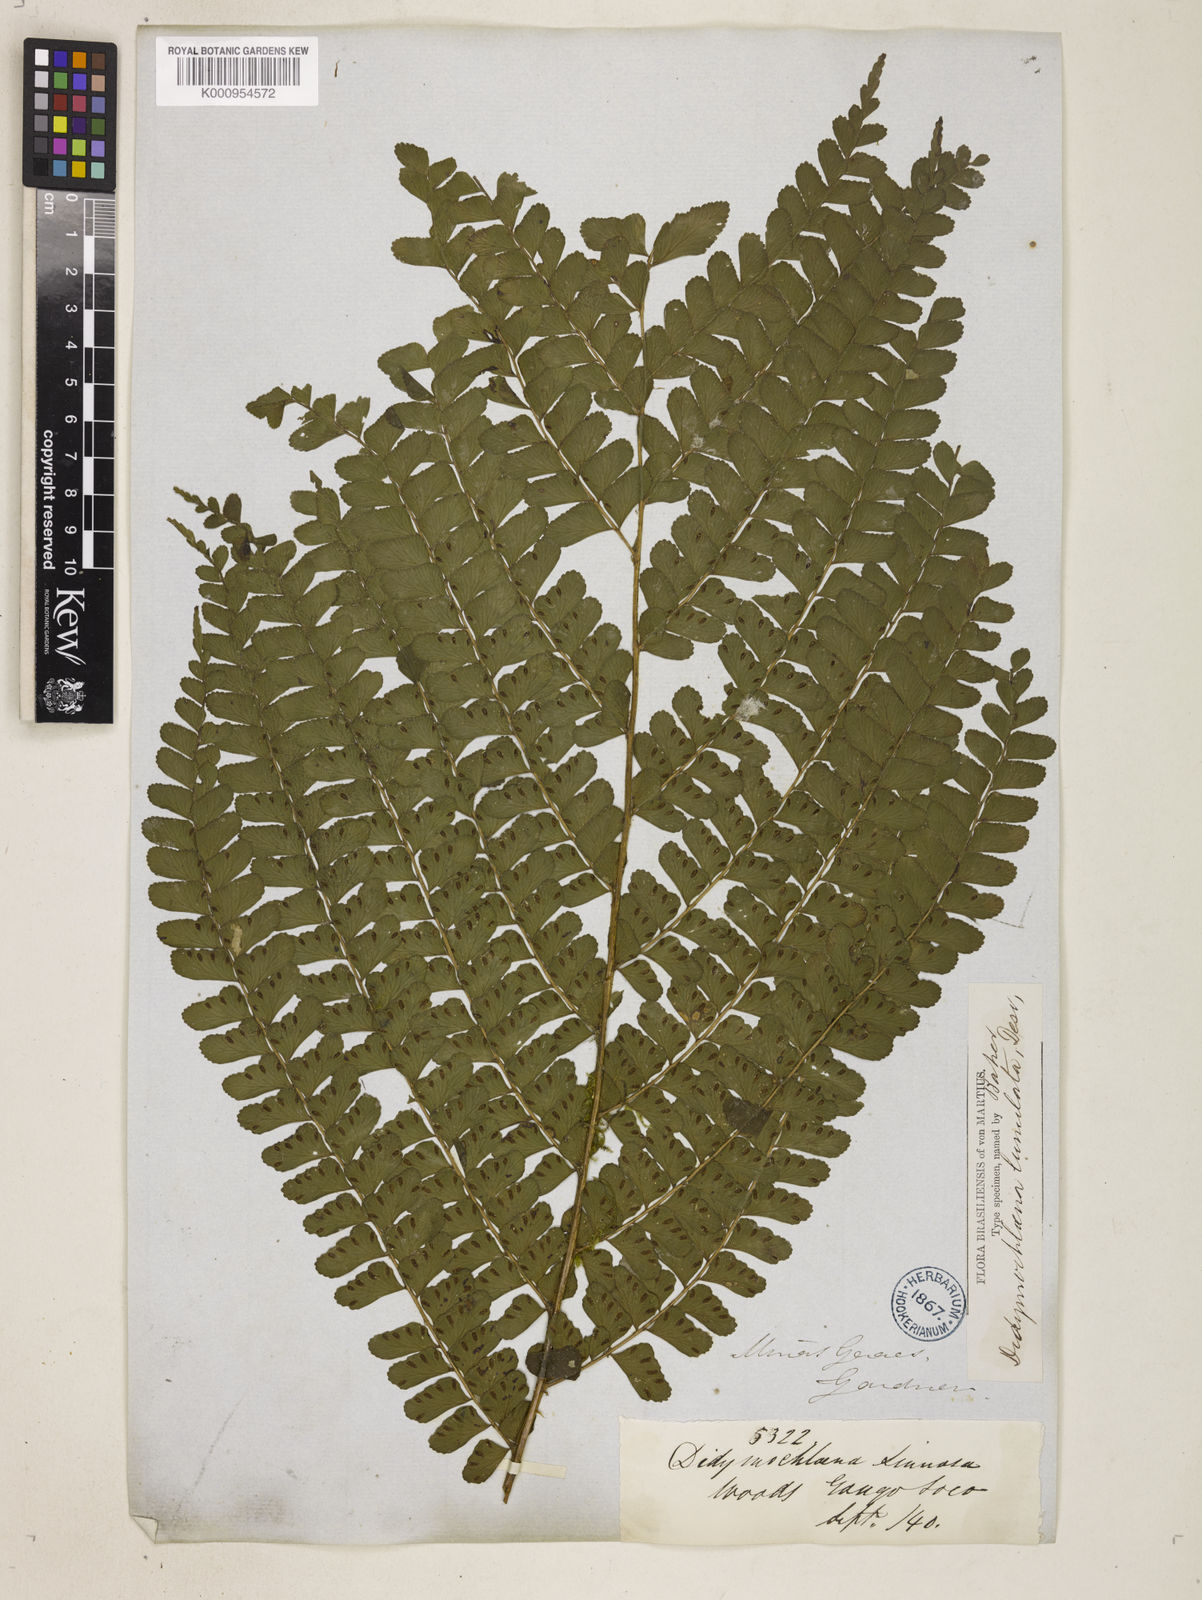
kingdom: Plantae
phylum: Tracheophyta
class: Polypodiopsida
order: Polypodiales
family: Didymochlaenaceae
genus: Didymochlaena
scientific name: Didymochlaena truncatula
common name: Mahogany fern
